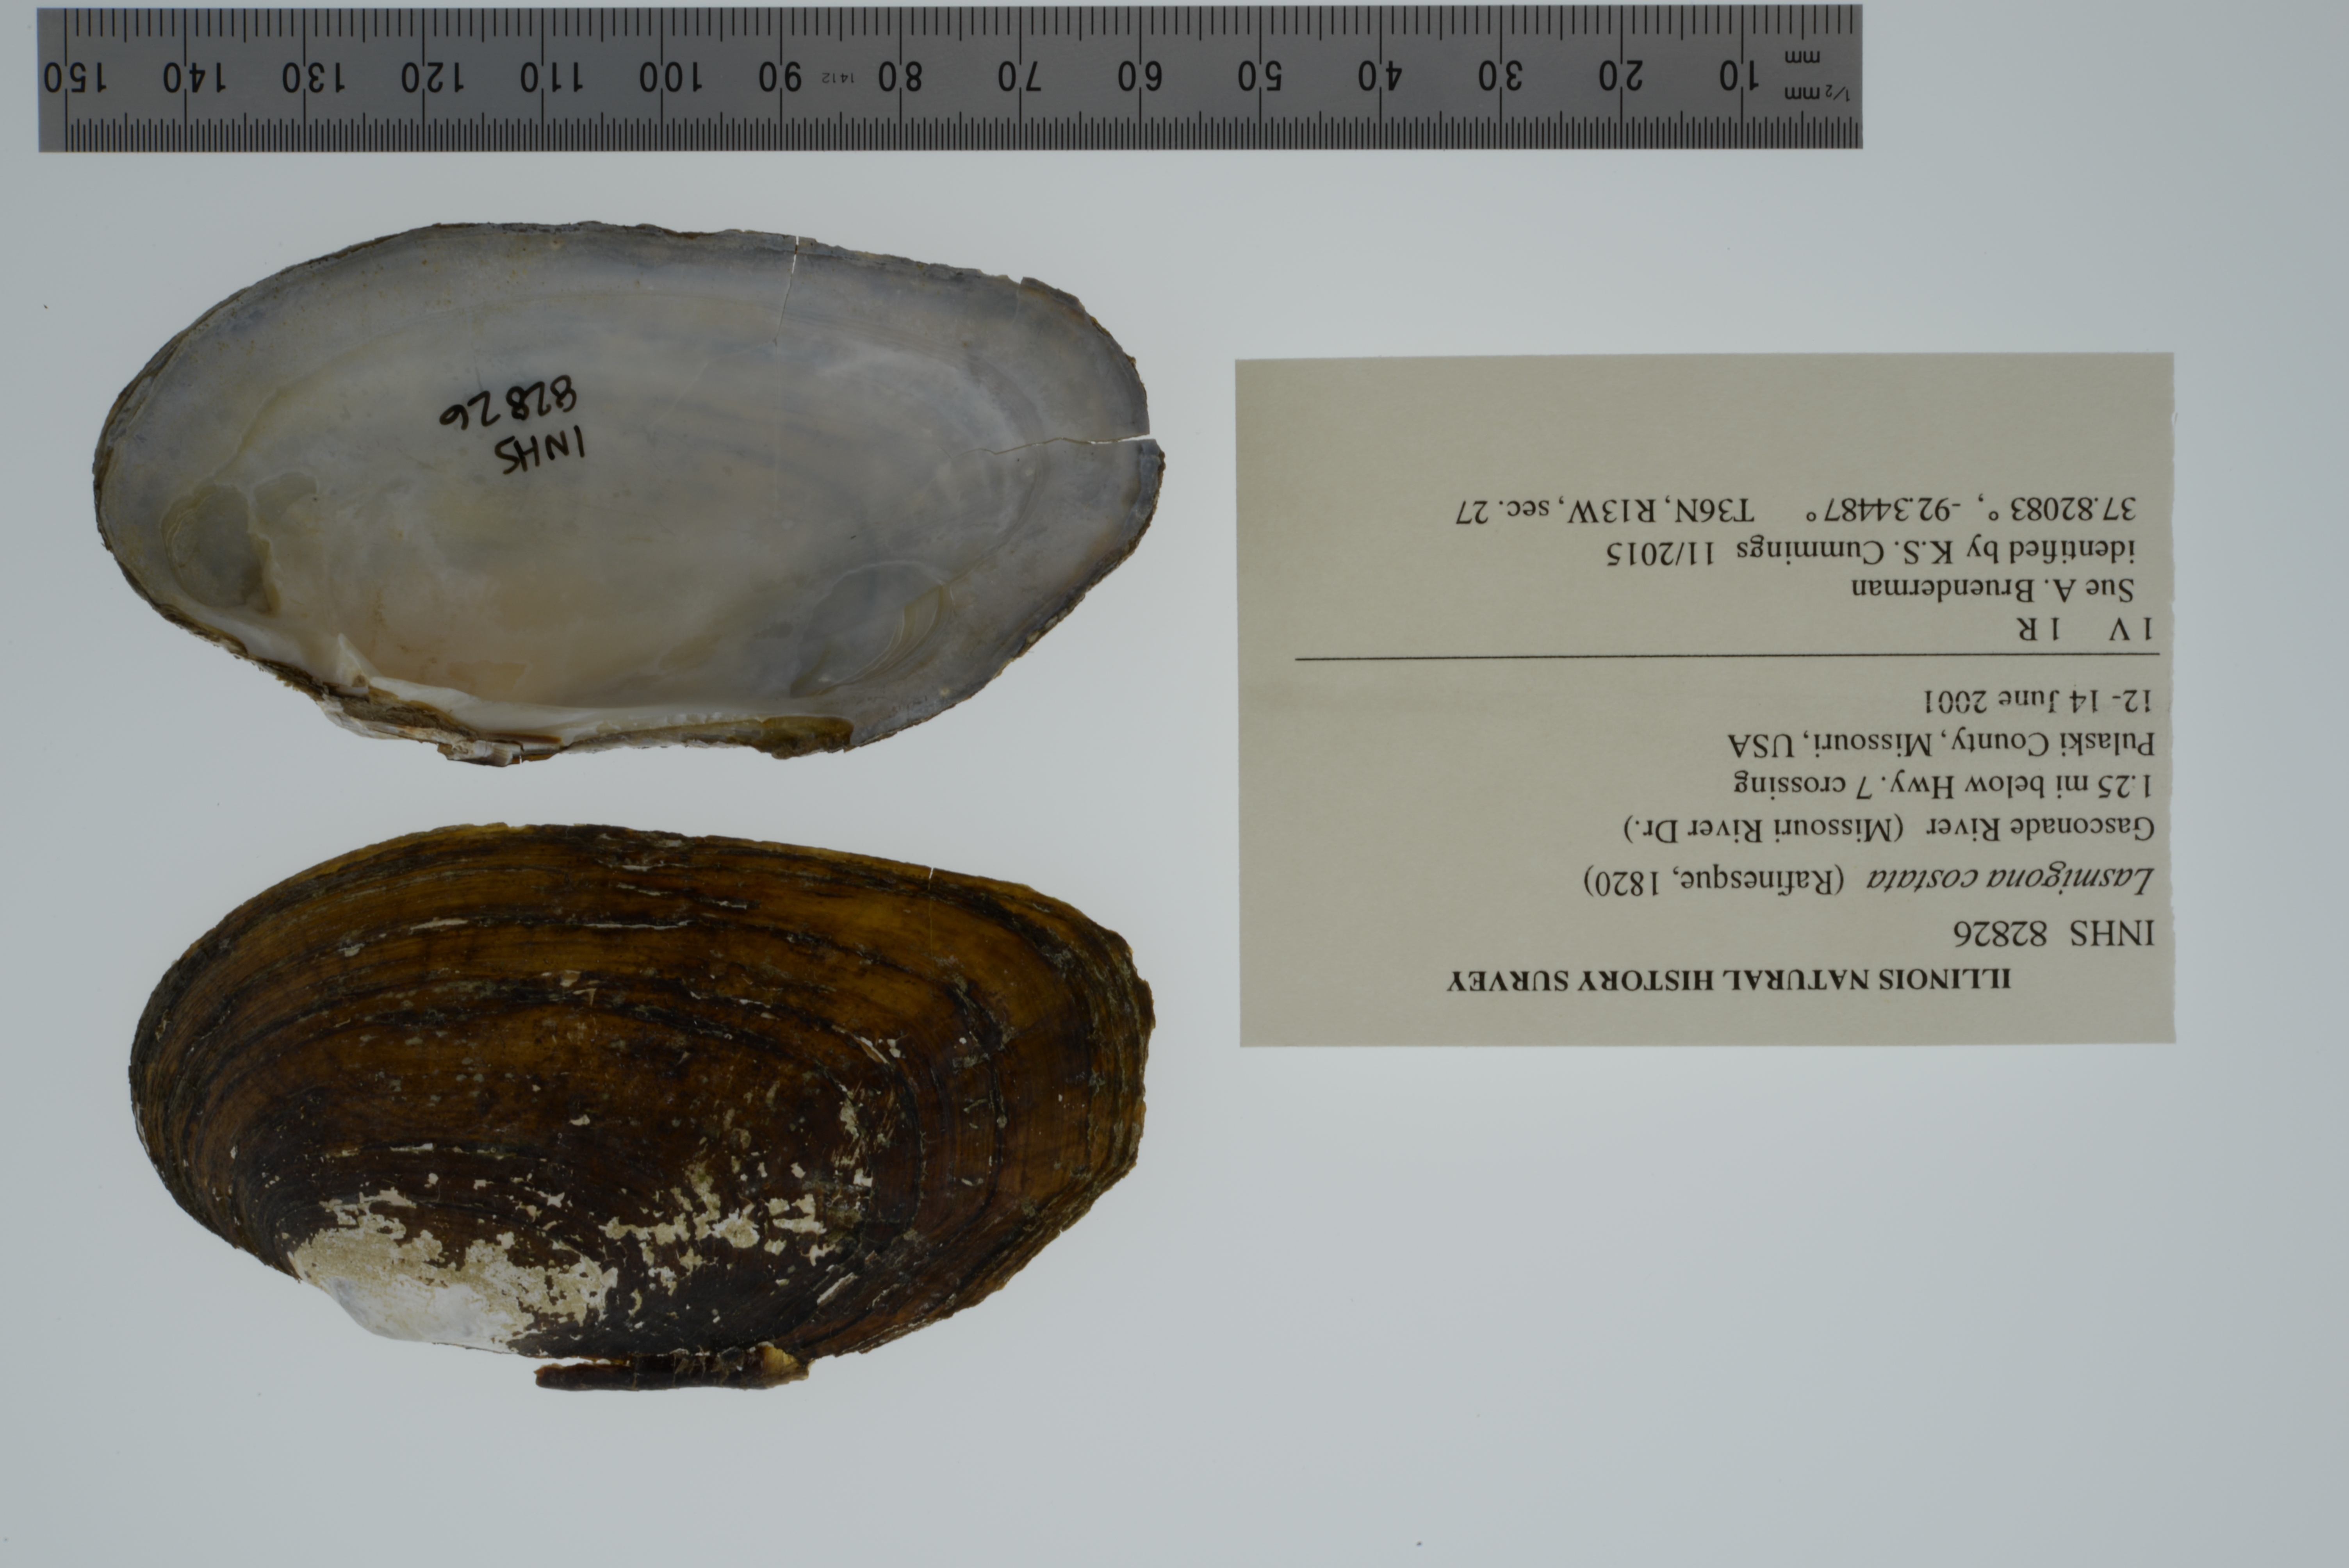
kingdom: Animalia
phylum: Mollusca
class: Bivalvia
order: Unionida
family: Unionidae
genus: Lasmigona
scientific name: Lasmigona costata
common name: Flutedshell
